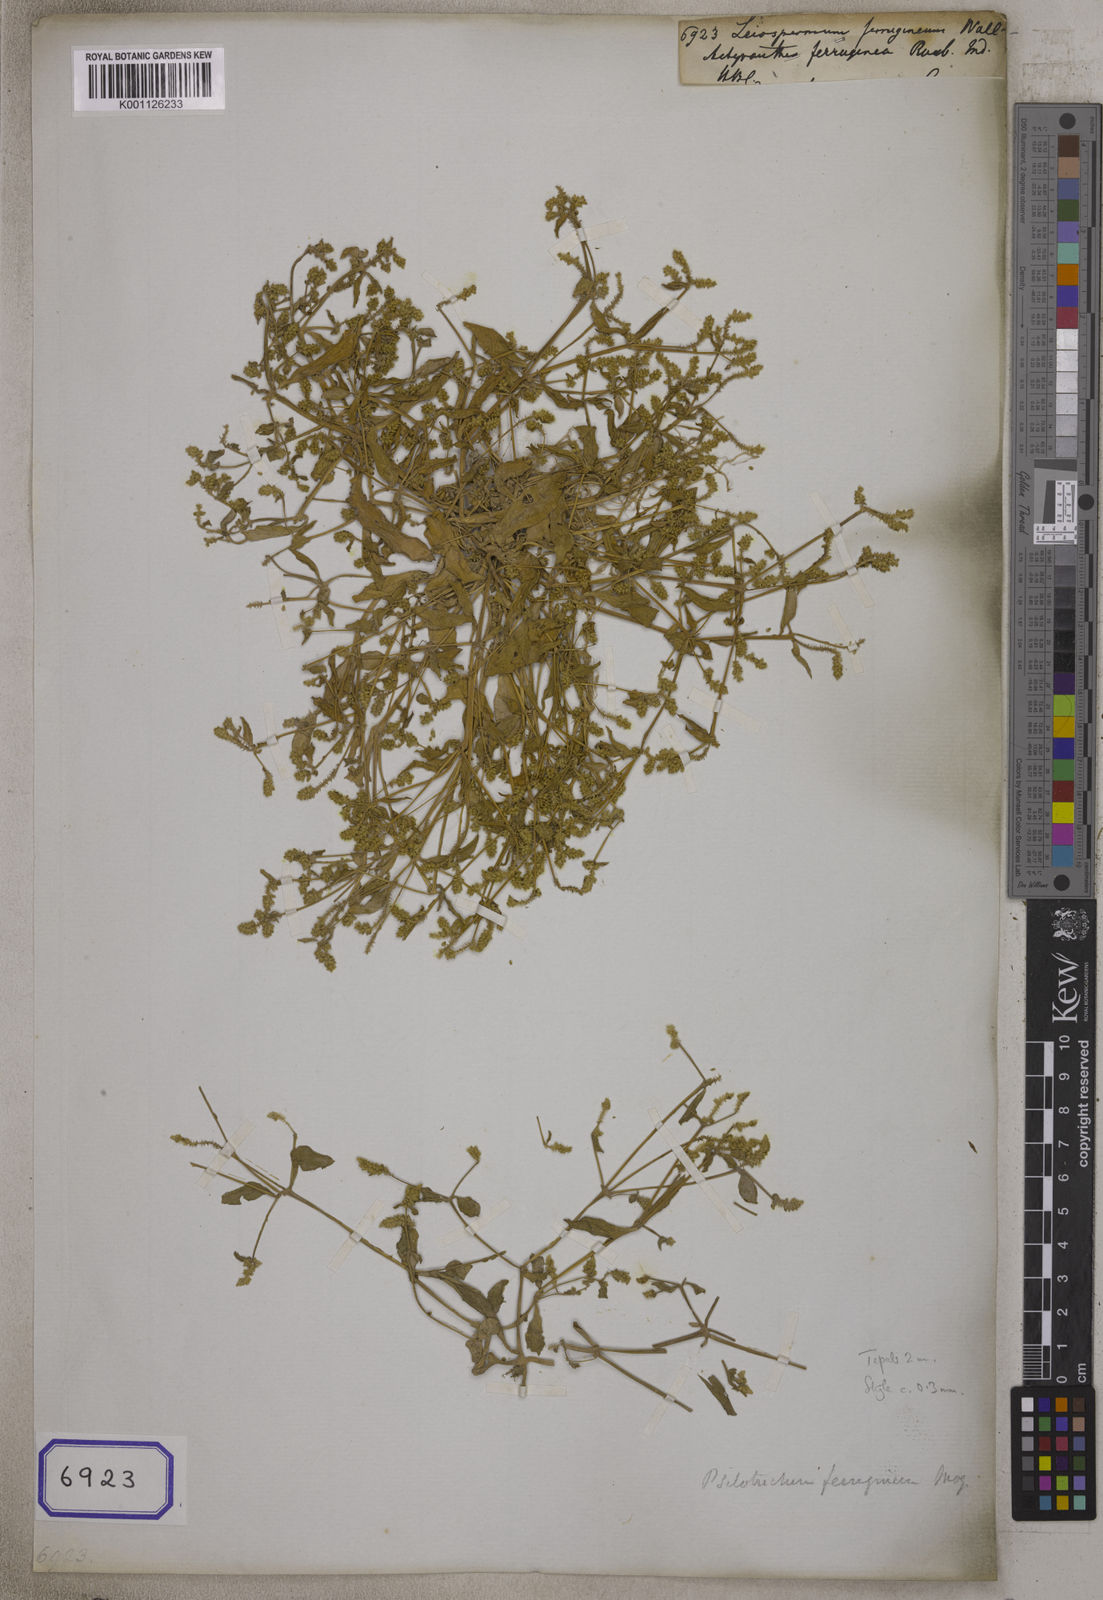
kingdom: Plantae
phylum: Tracheophyta
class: Magnoliopsida
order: Caryophyllales
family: Amaranthaceae
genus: Psilotrichum
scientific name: Psilotrichum
